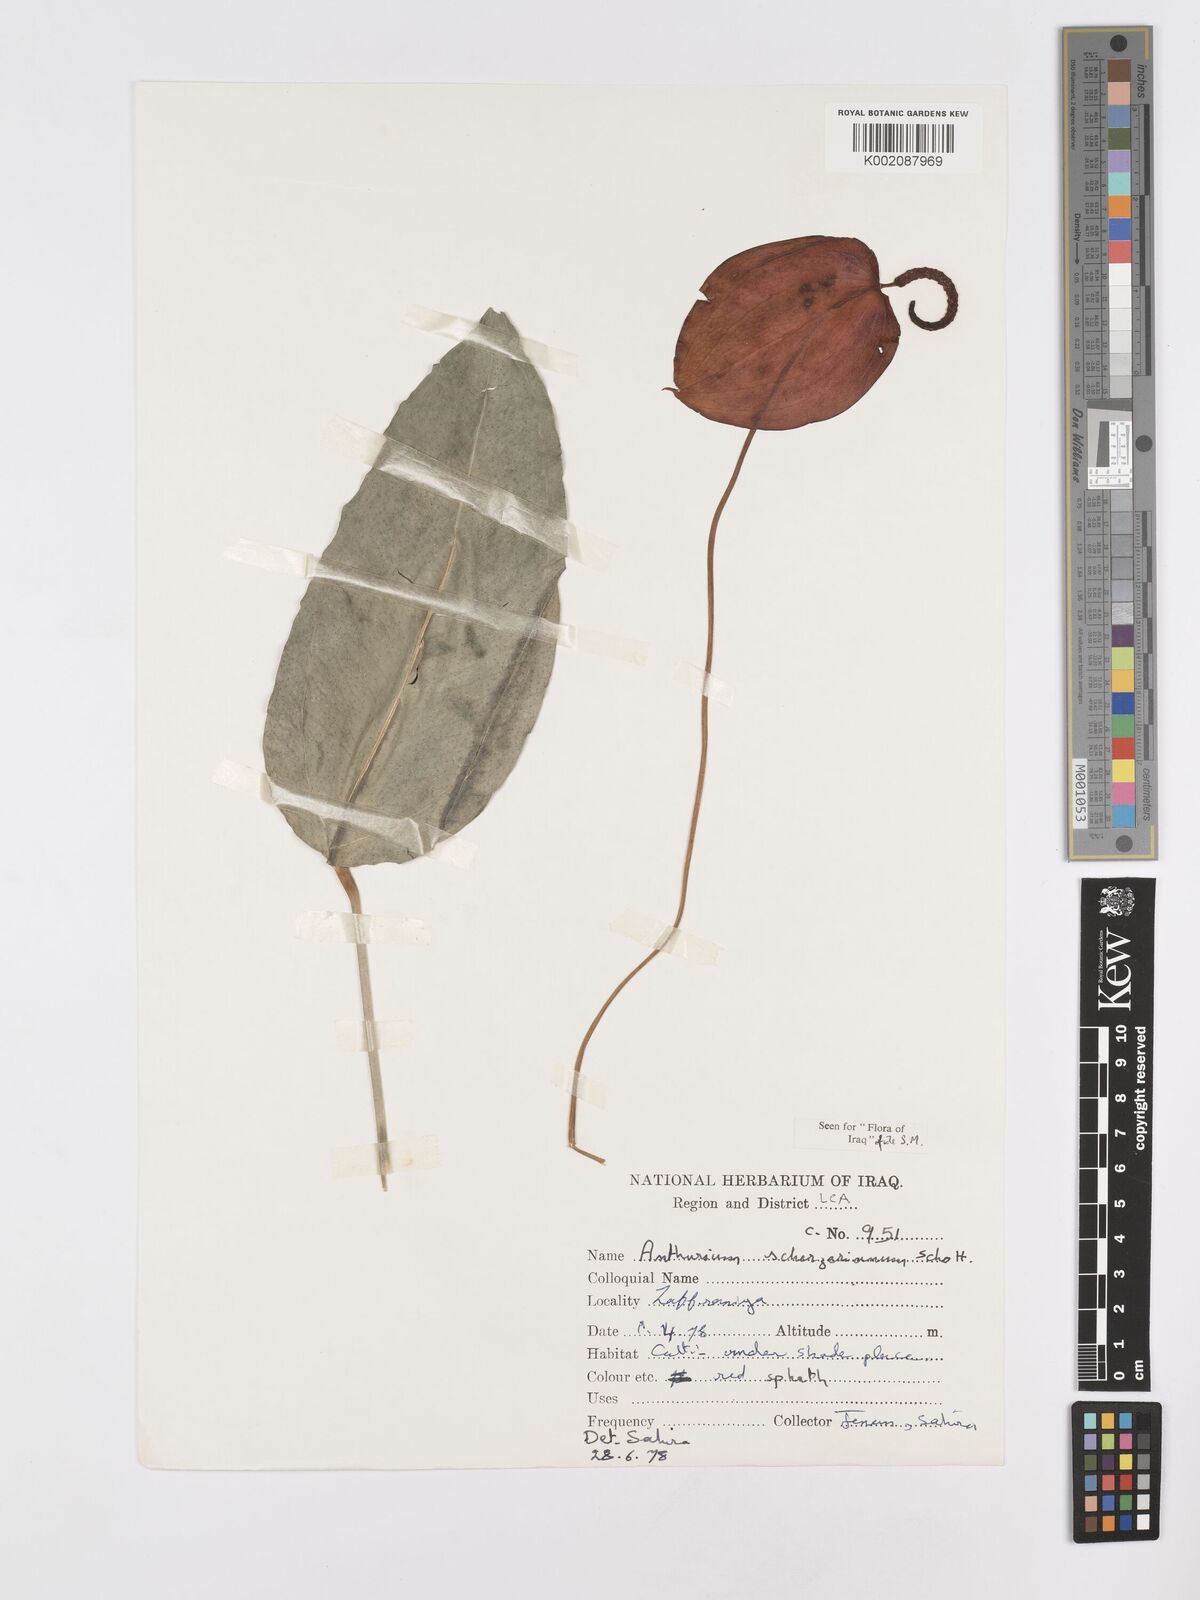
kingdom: Plantae
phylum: Tracheophyta
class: Liliopsida
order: Alismatales
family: Araceae
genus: Anthurium
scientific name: Anthurium scherzerianum
